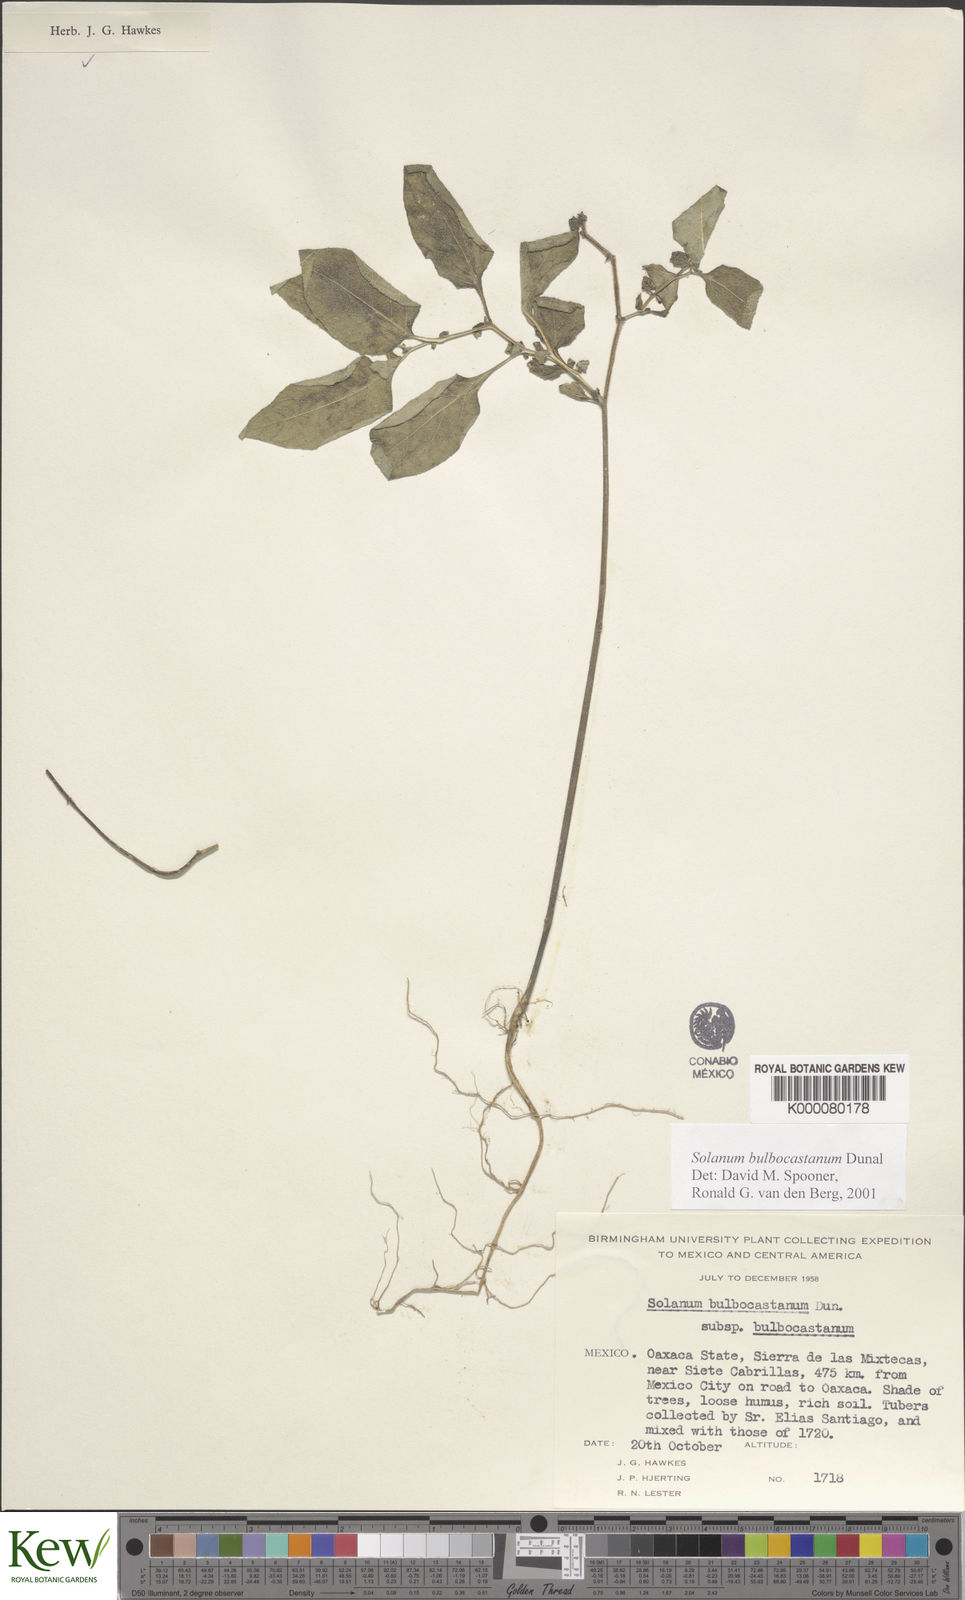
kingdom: Plantae
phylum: Tracheophyta
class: Magnoliopsida
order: Solanales
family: Solanaceae
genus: Solanum
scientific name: Solanum bulbocastanum
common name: Ornamental nightshade
